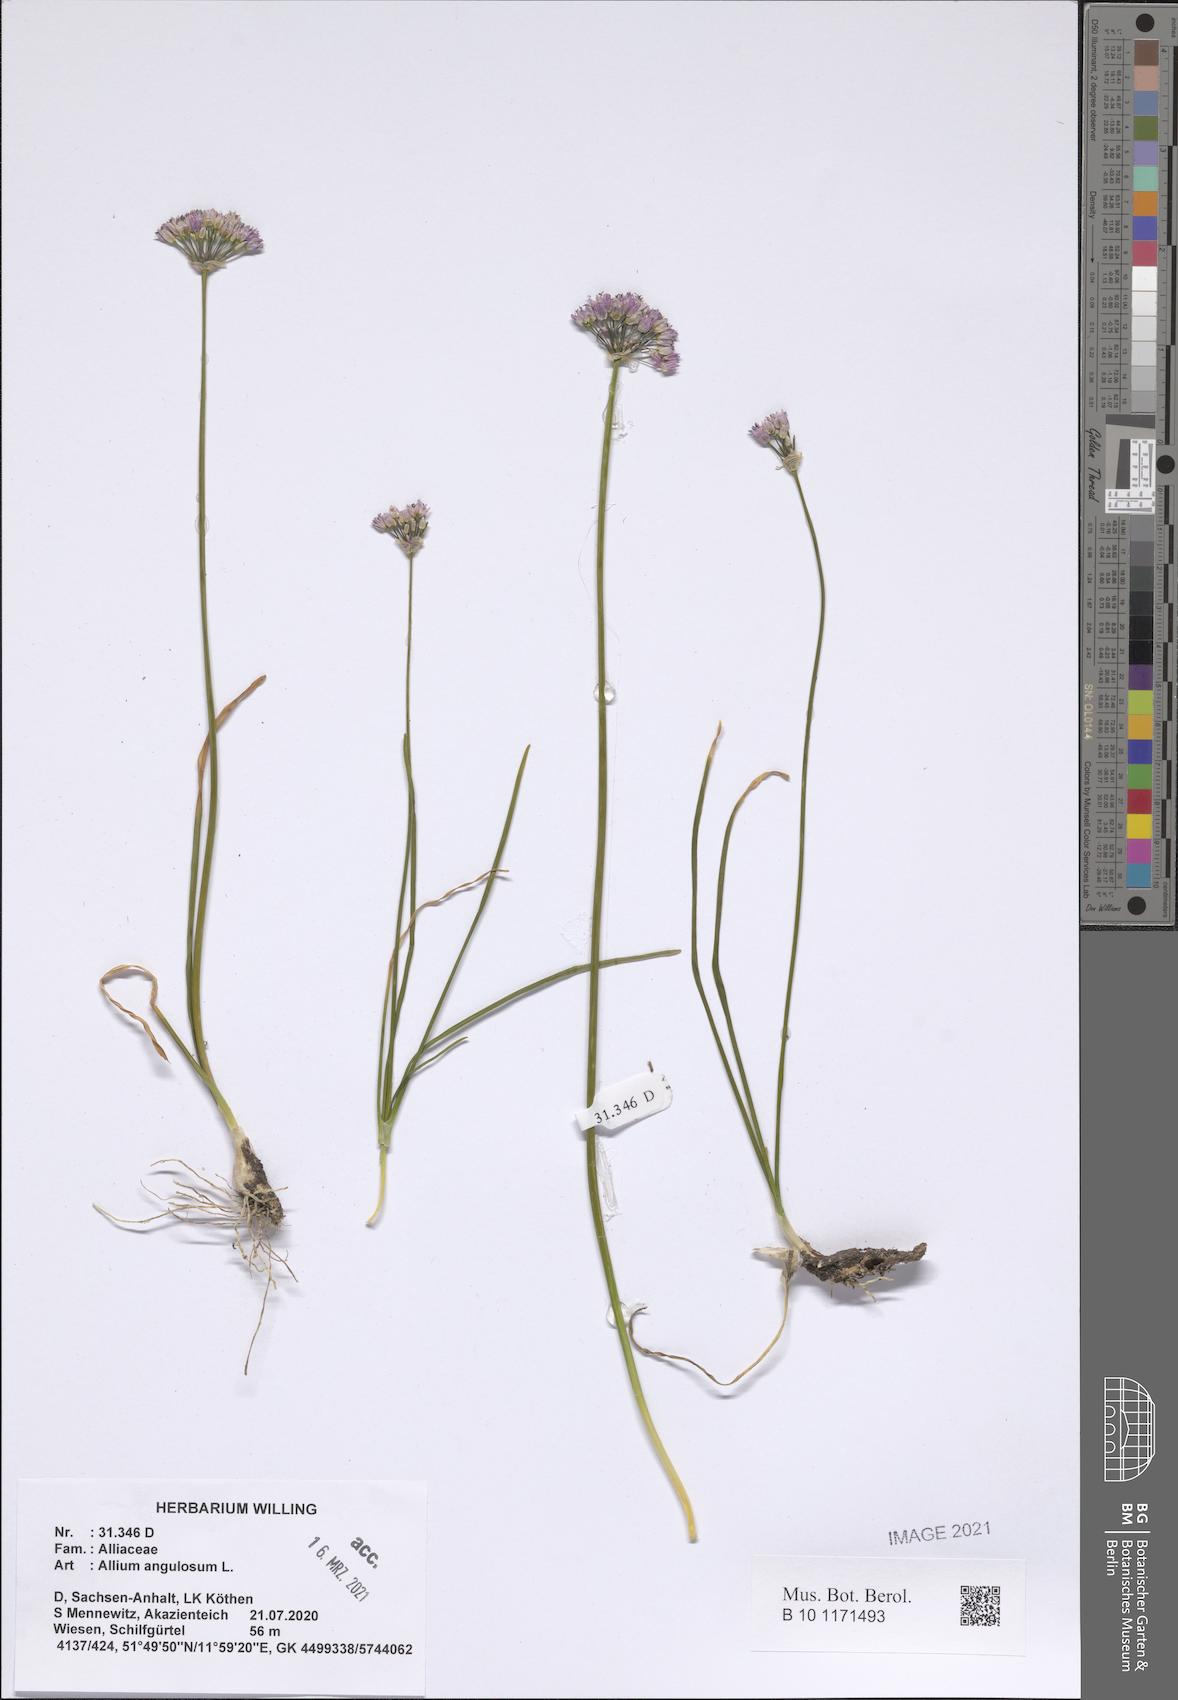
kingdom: Plantae
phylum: Tracheophyta
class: Liliopsida
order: Asparagales
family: Amaryllidaceae
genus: Allium
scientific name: Allium angulosum
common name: Mouse garlic
